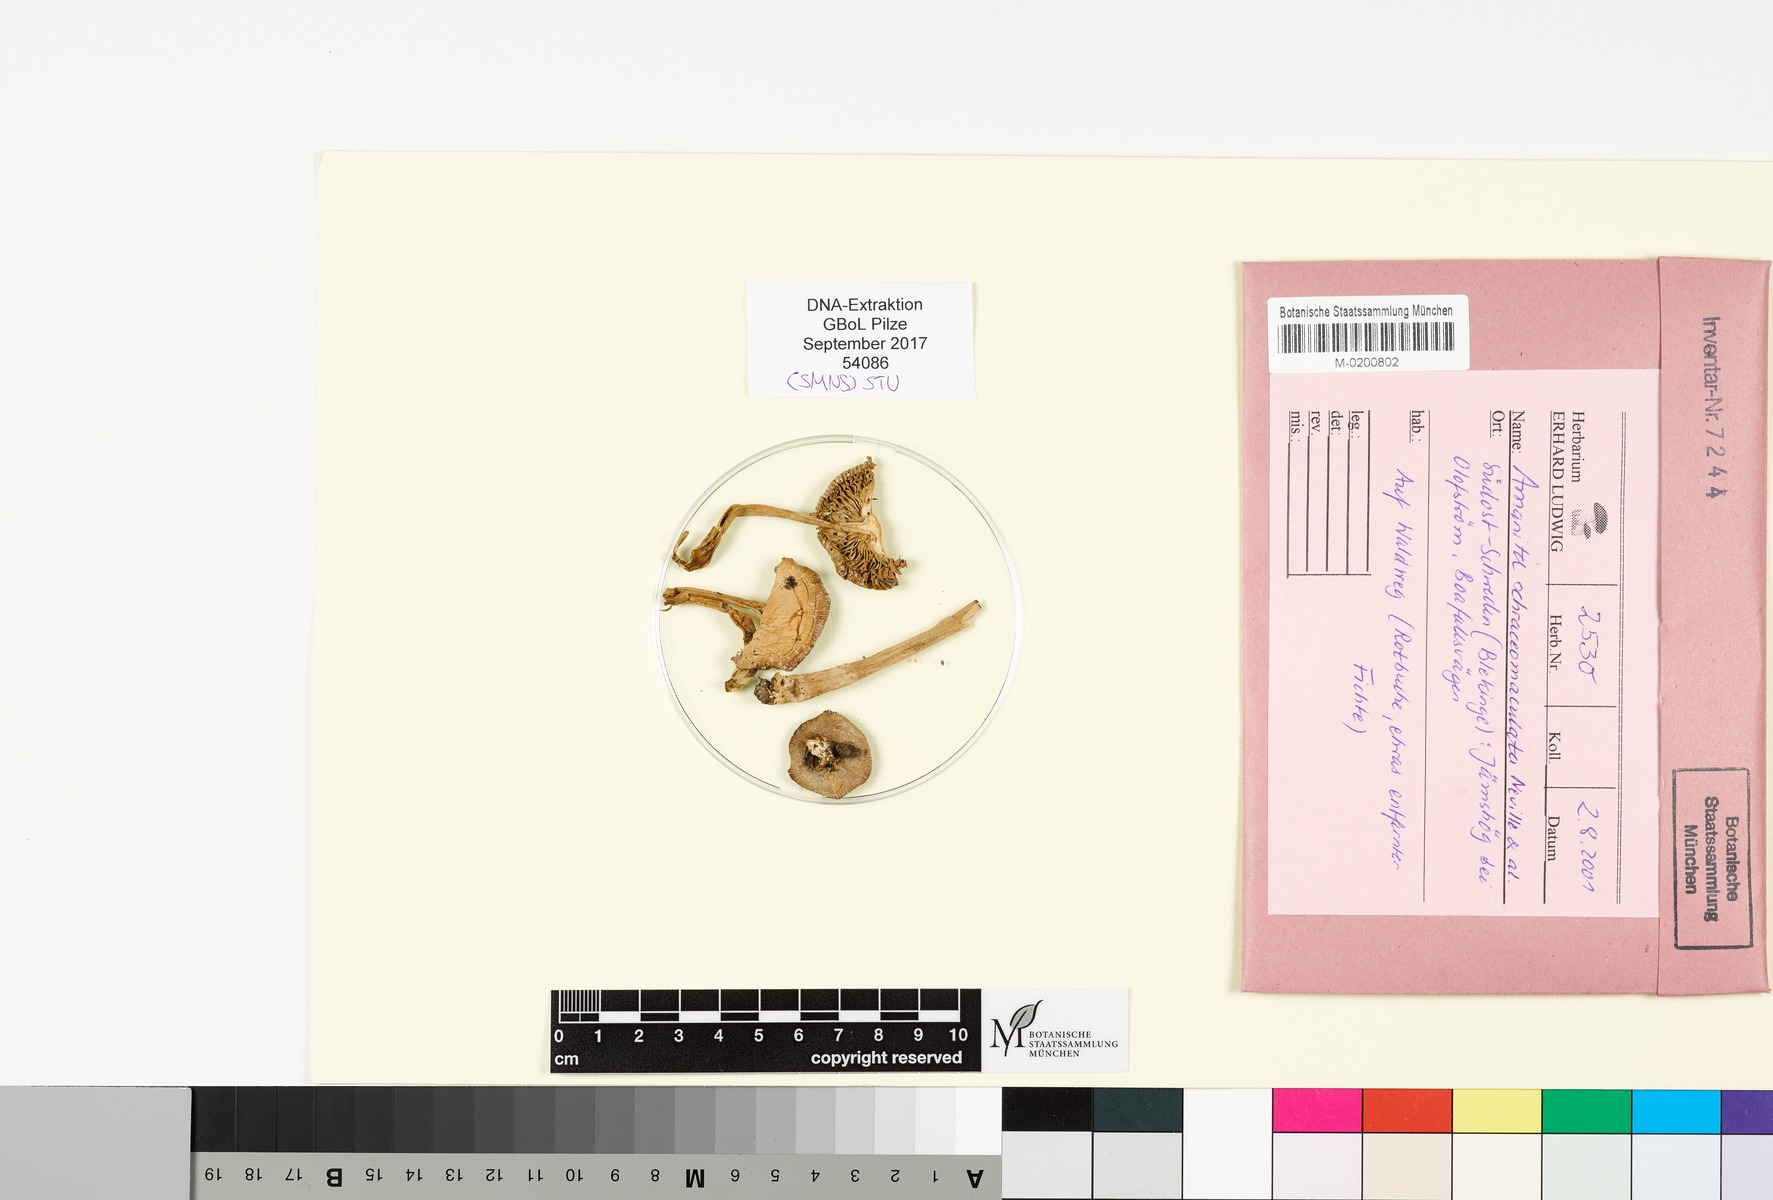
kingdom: Fungi
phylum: Basidiomycota
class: Agaricomycetes
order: Agaricales
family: Amanitaceae
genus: Amanita
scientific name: Amanita brunneofuliginea
